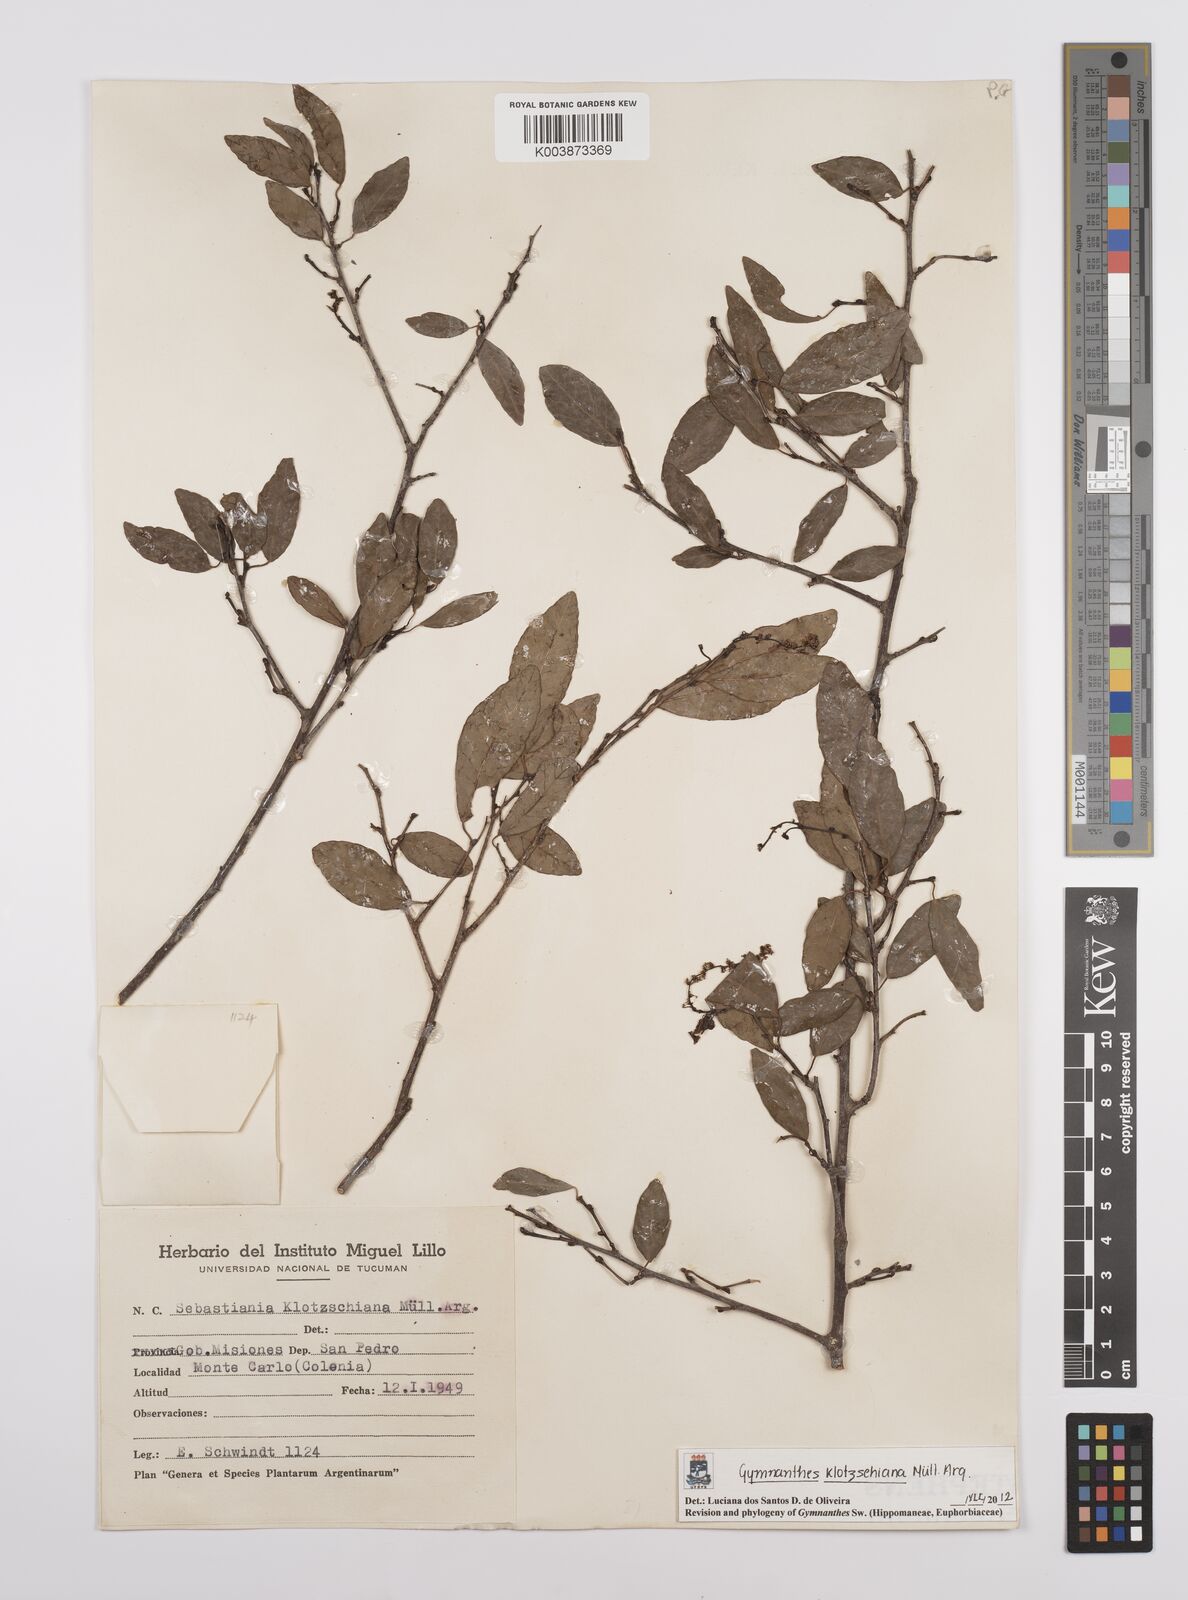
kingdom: Plantae
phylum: Tracheophyta
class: Magnoliopsida
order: Malpighiales
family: Euphorbiaceae
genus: Sebastiania
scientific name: Sebastiania klotzschiana
